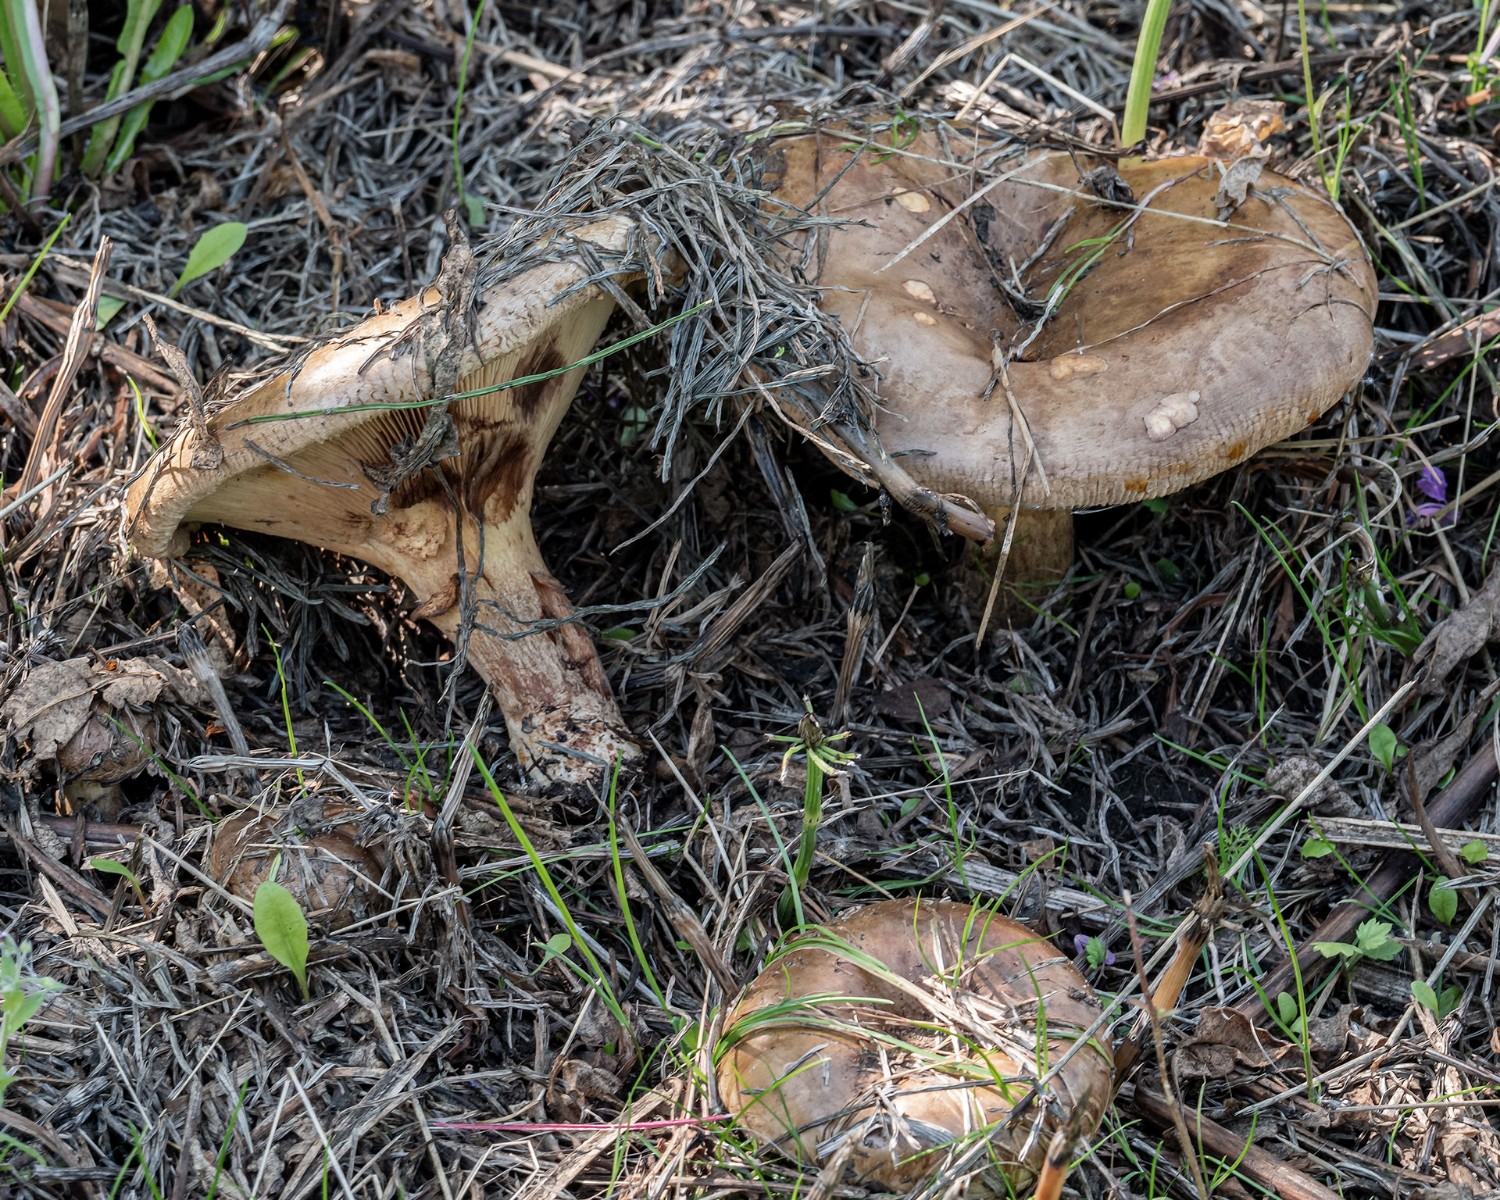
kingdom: Fungi
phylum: Basidiomycota
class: Agaricomycetes
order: Boletales
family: Paxillaceae
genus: Paxillus
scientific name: Paxillus involutus
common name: almindelig netbladhat
